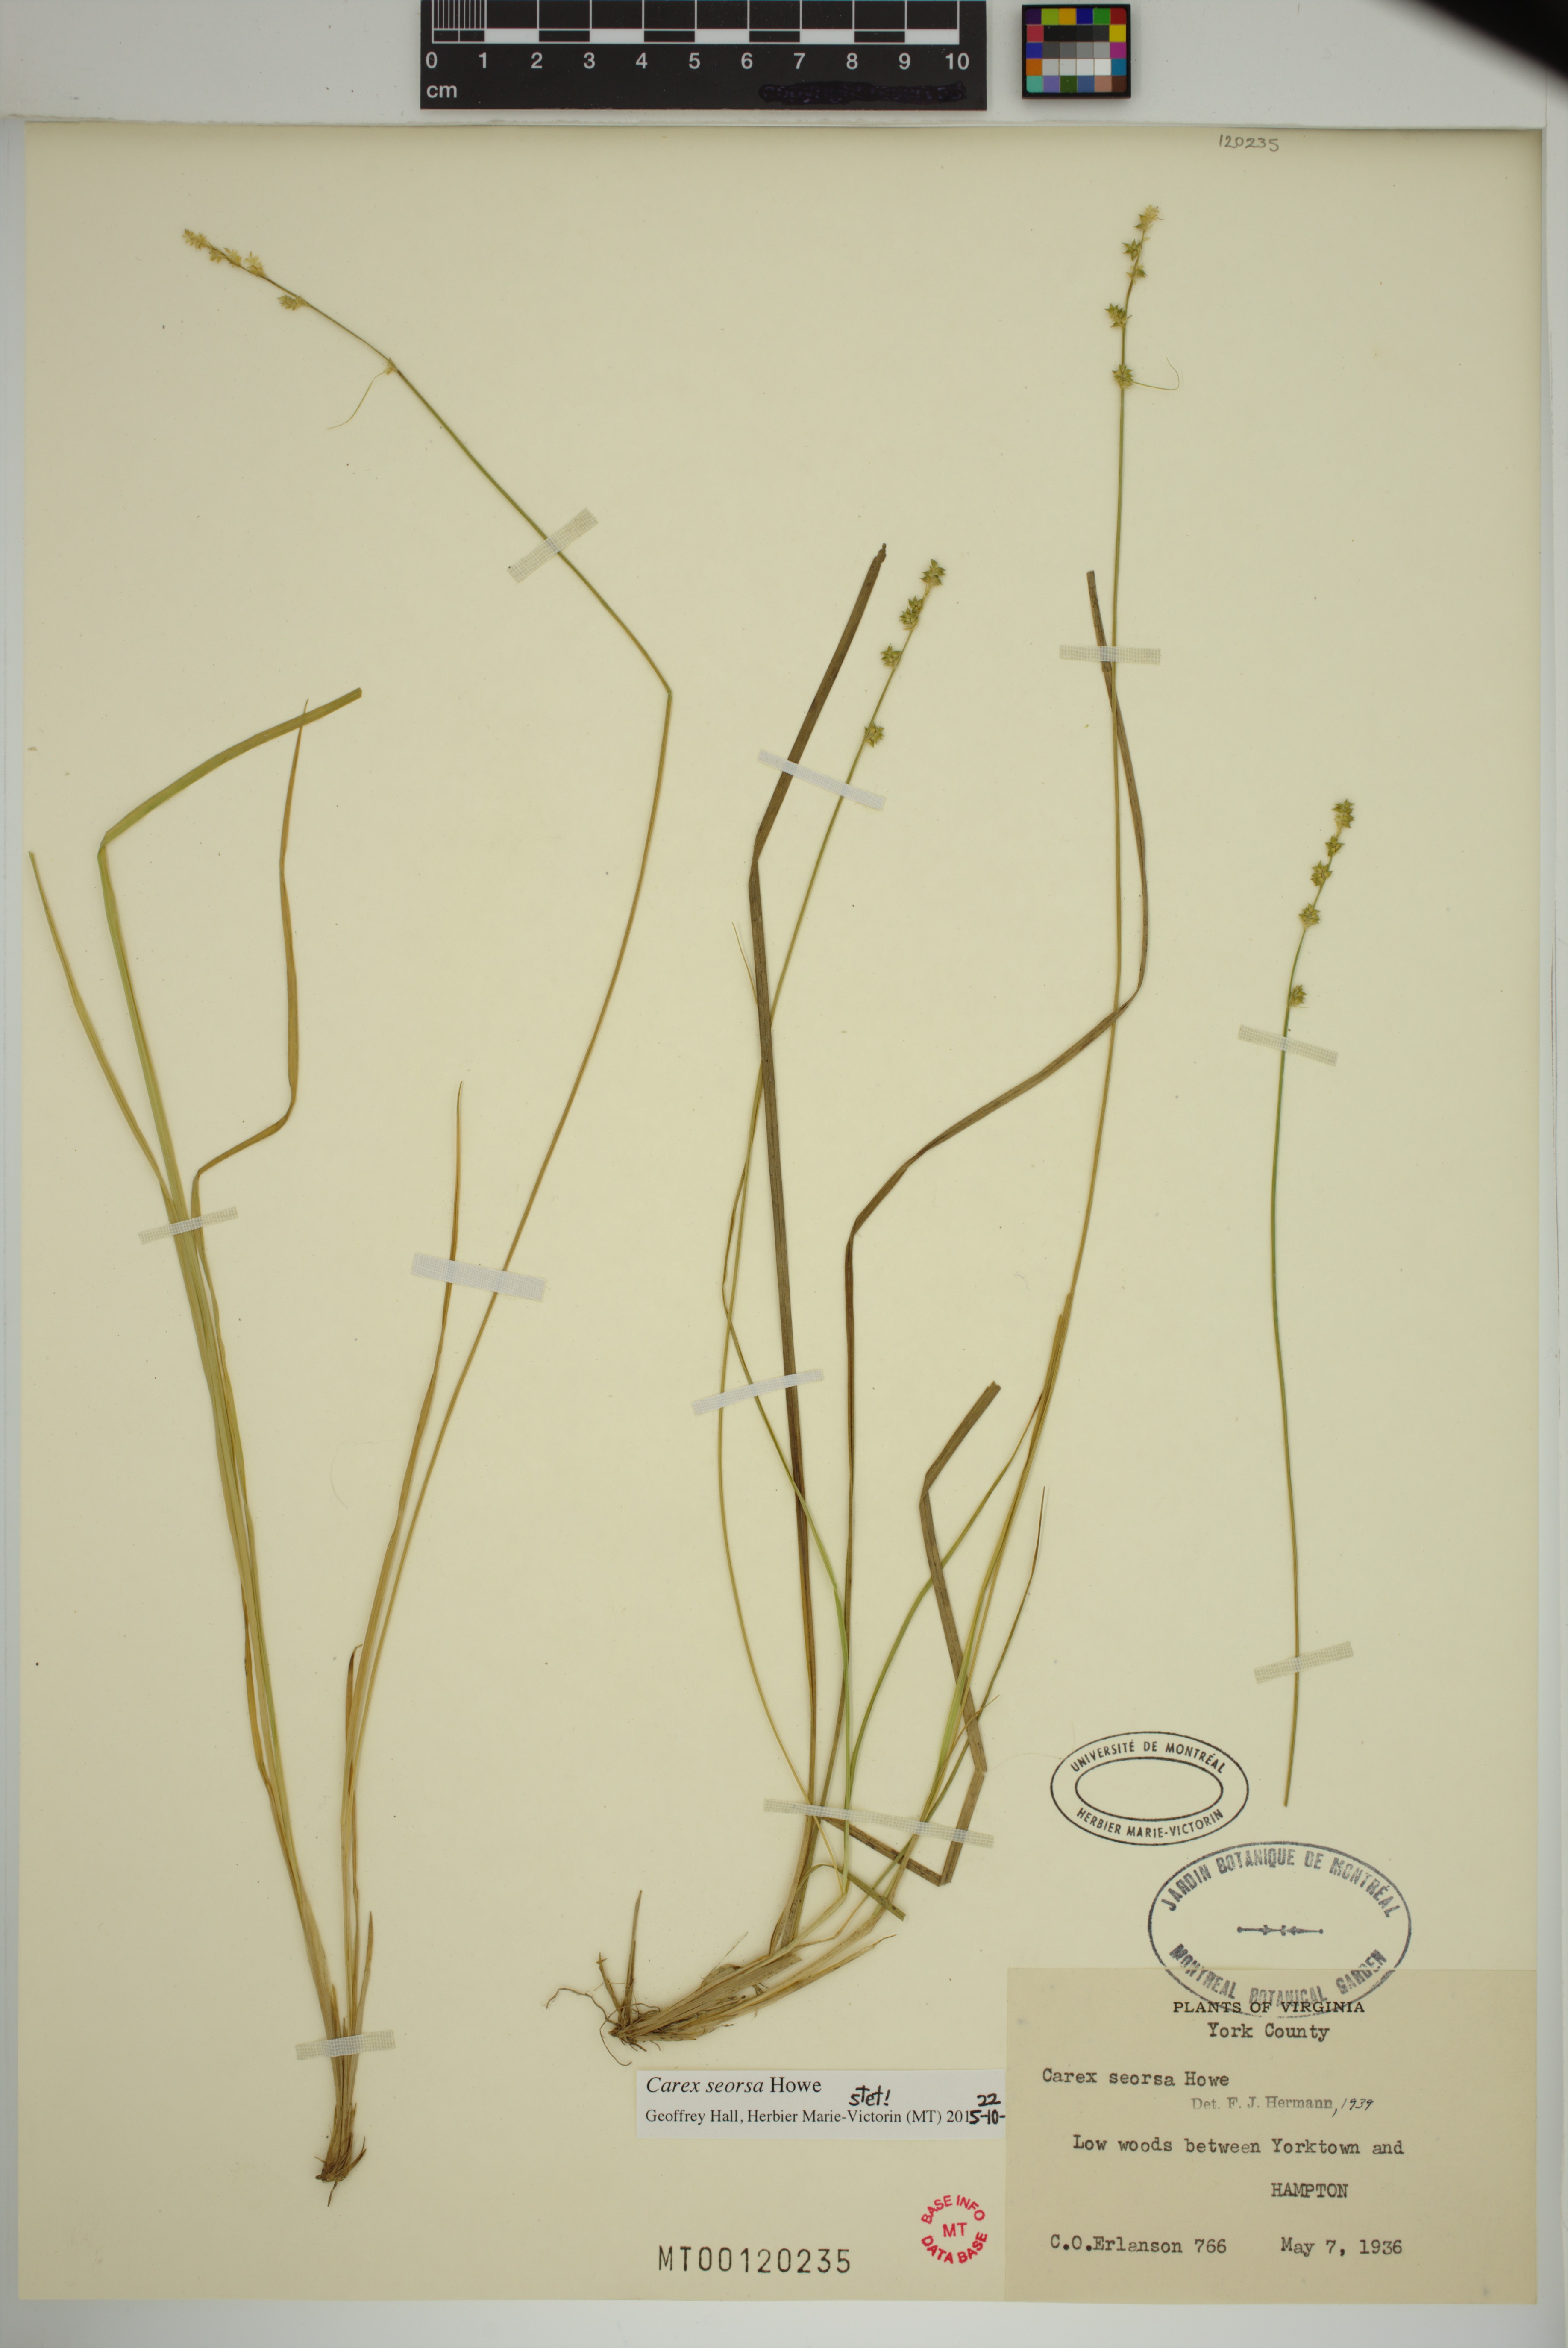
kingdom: Plantae
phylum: Tracheophyta
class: Liliopsida
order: Poales
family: Cyperaceae
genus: Carex
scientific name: Carex seorsa
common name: Swamp star sedge
